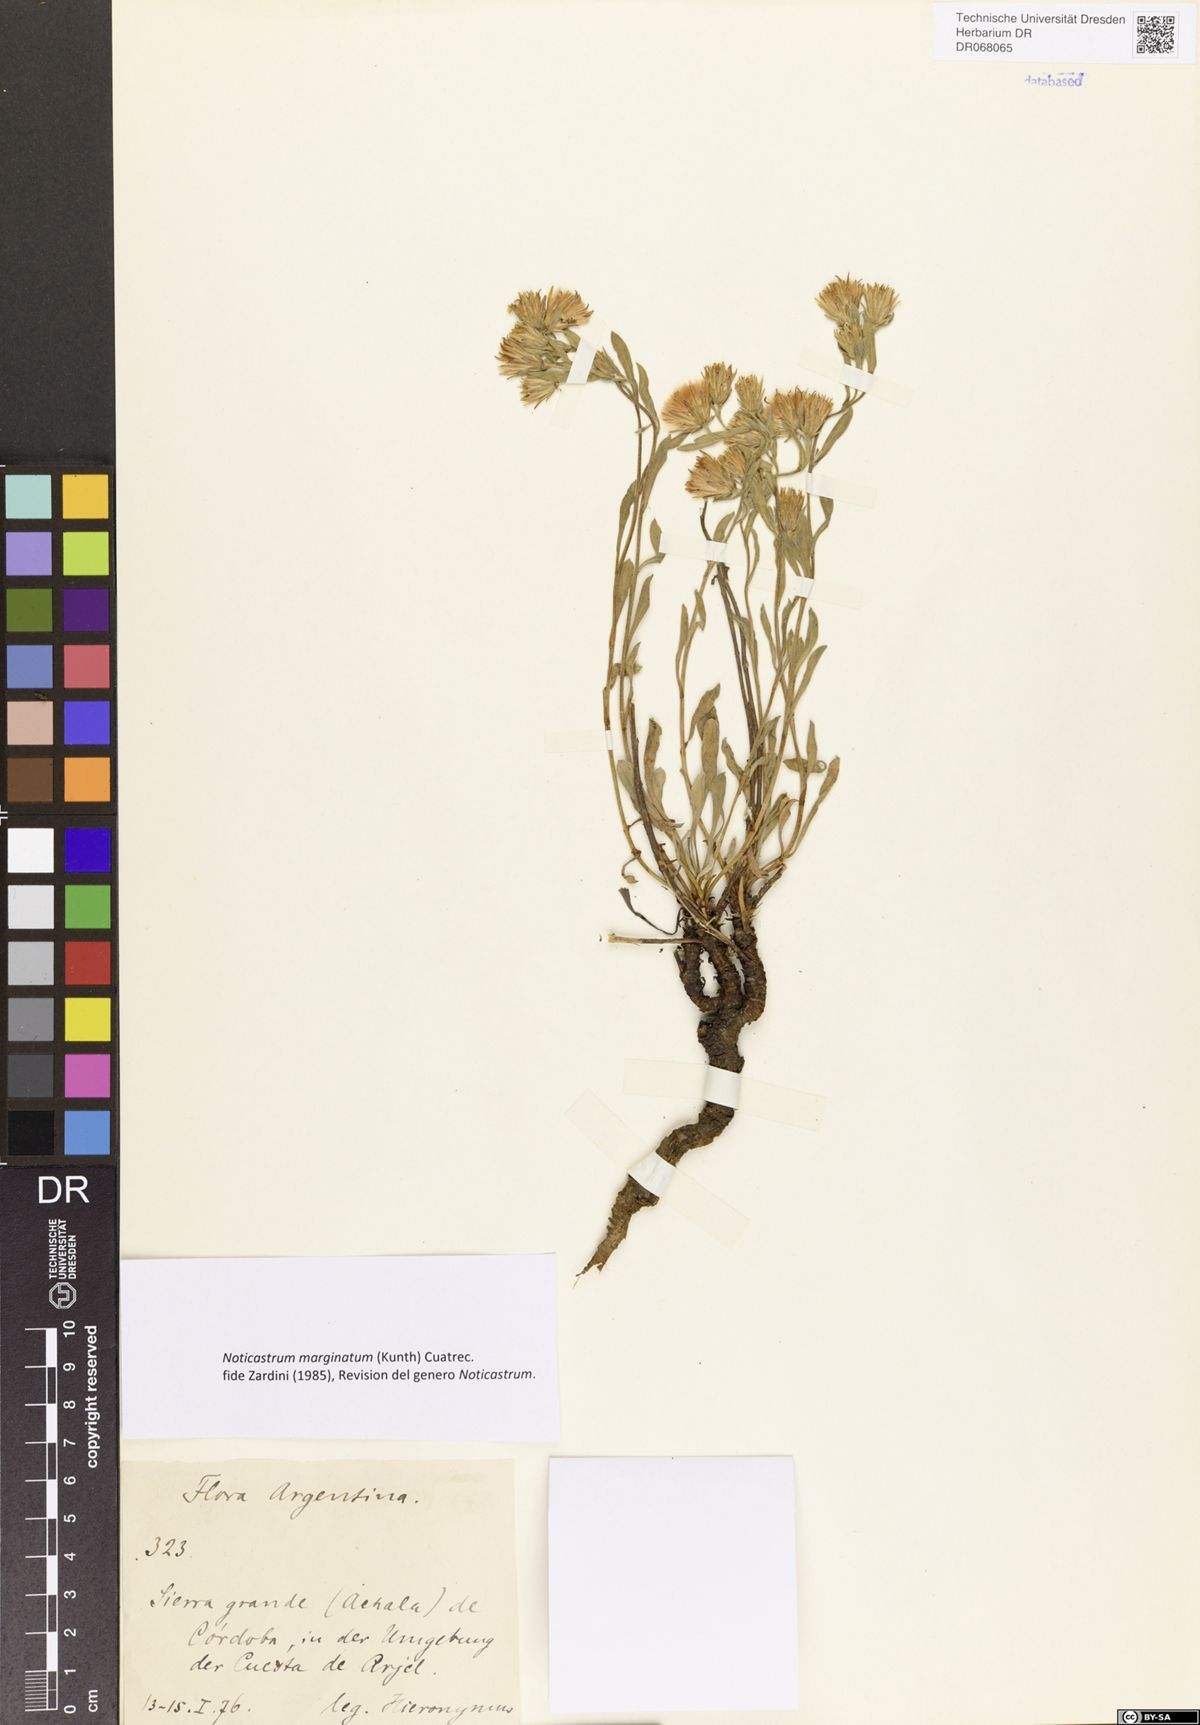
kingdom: Plantae
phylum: Tracheophyta
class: Magnoliopsida
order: Asterales
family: Asteraceae
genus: Noticastrum
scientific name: Noticastrum marginatum
